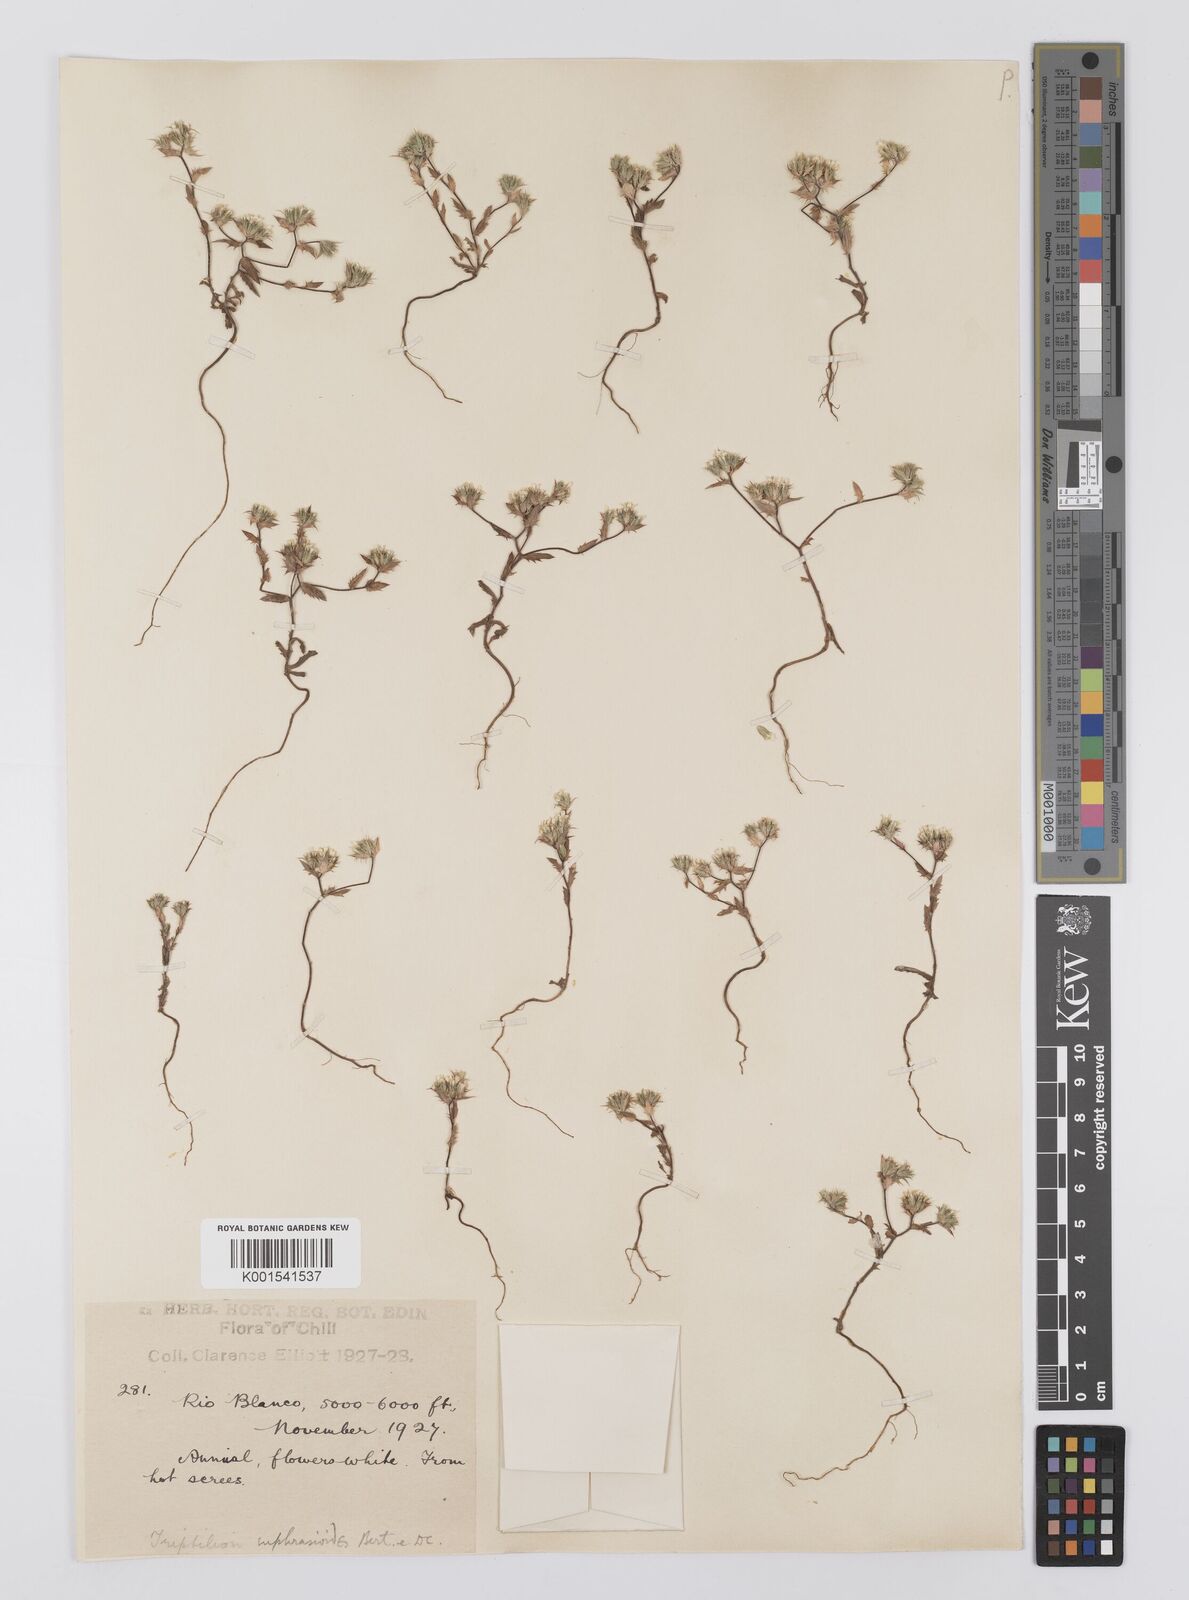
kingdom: Plantae
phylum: Tracheophyta
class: Magnoliopsida
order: Asterales
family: Asteraceae
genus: Triptilion
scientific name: Triptilion achilleae
